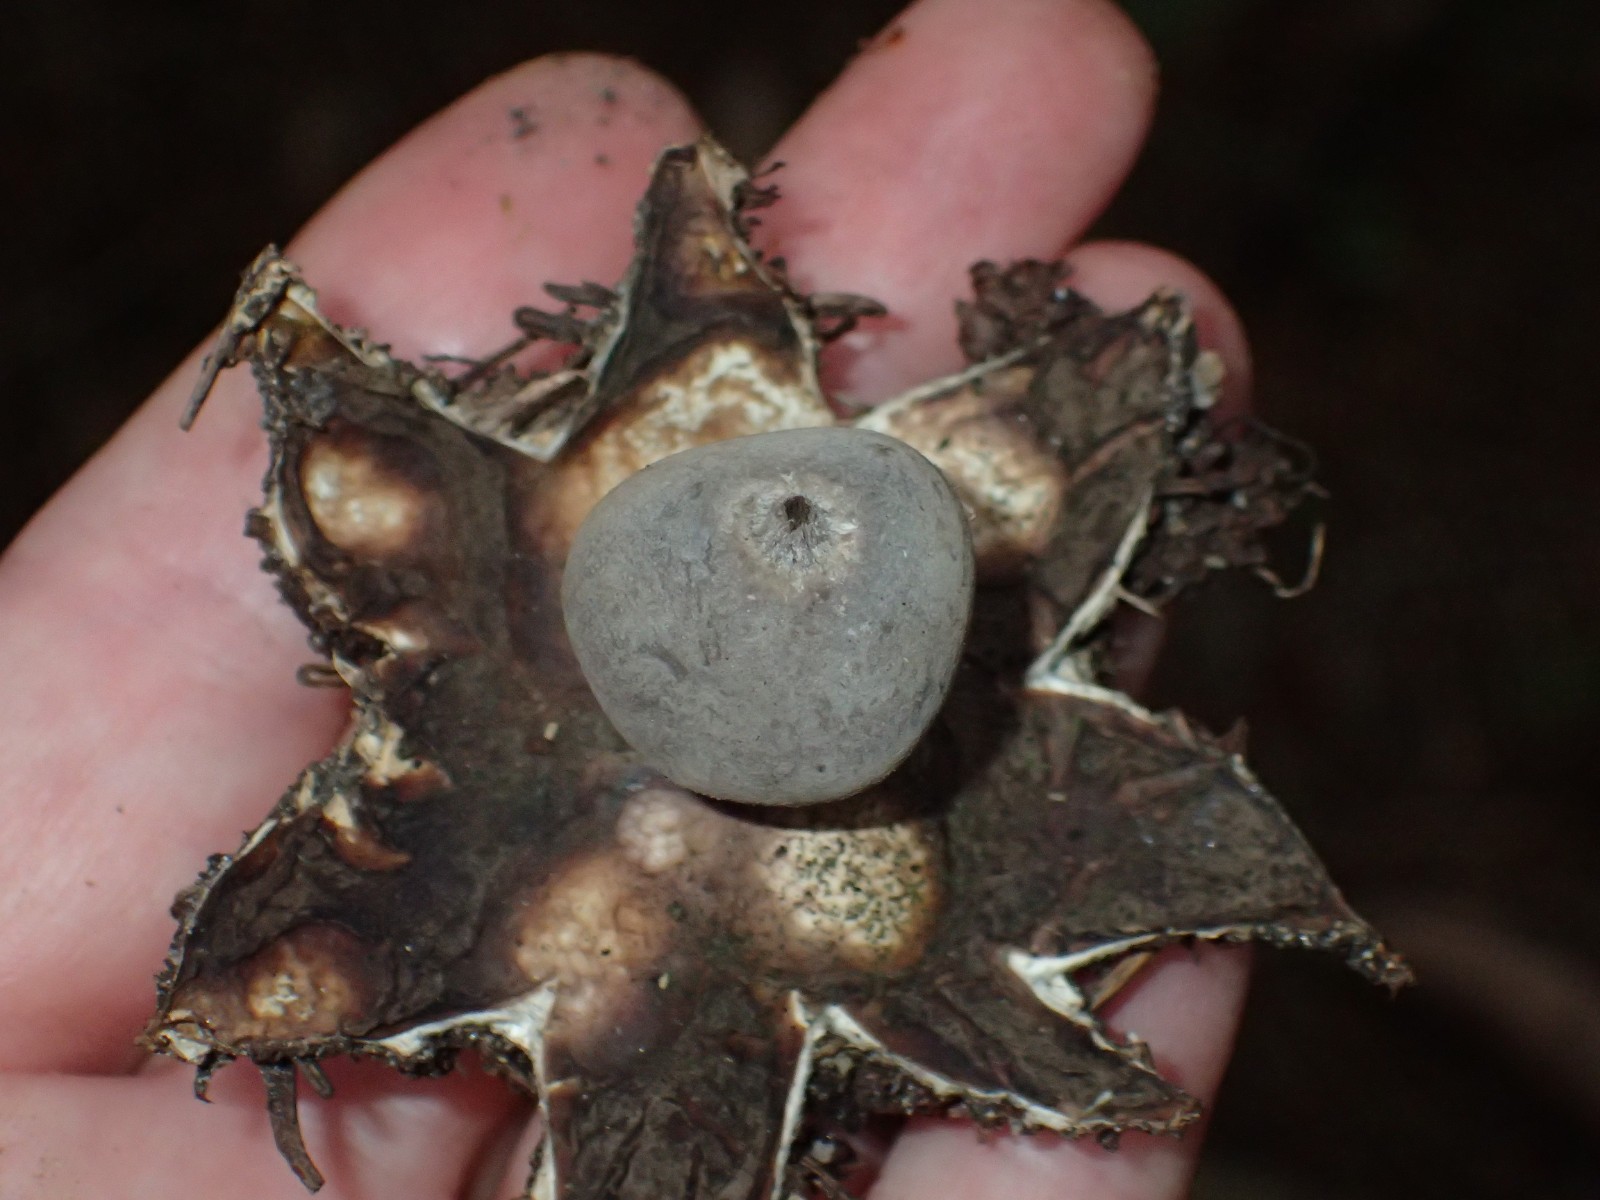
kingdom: Fungi
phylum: Basidiomycota
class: Agaricomycetes
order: Geastrales
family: Geastraceae
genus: Geastrum
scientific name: Geastrum
